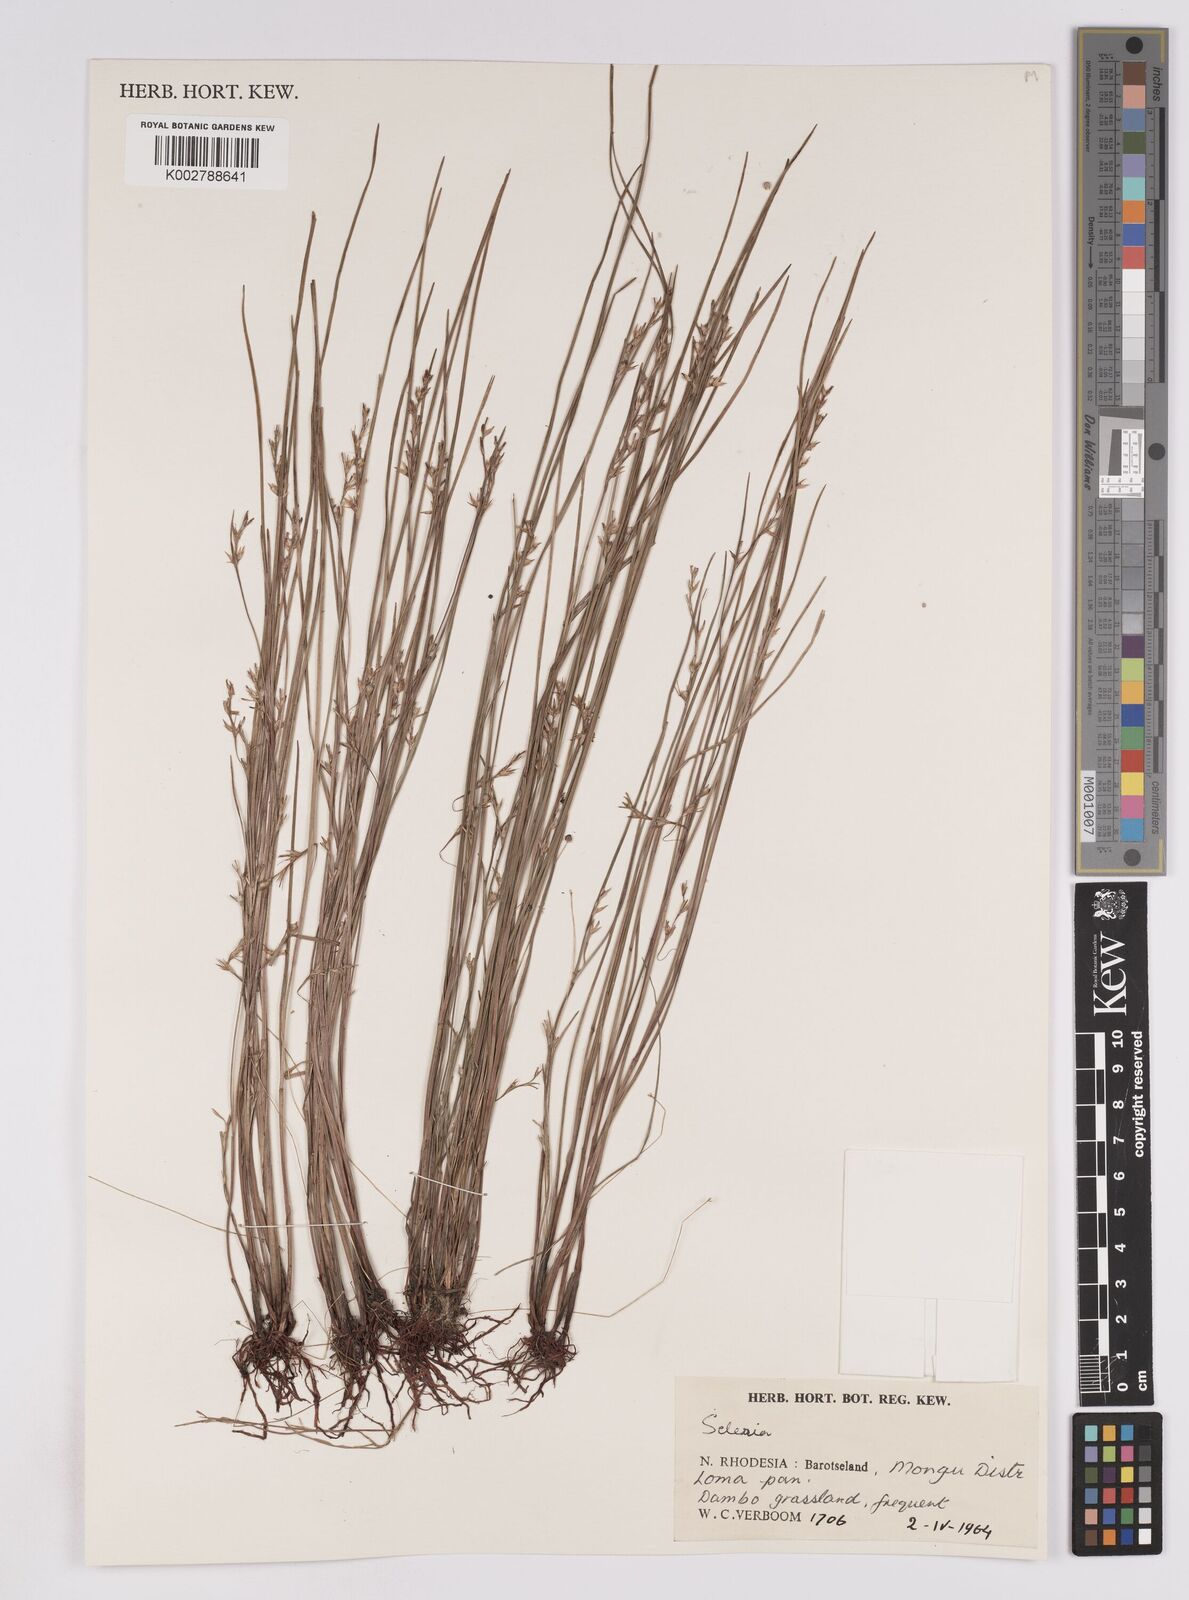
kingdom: Plantae
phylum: Tracheophyta
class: Liliopsida
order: Poales
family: Cyperaceae
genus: Scleria
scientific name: Scleria
